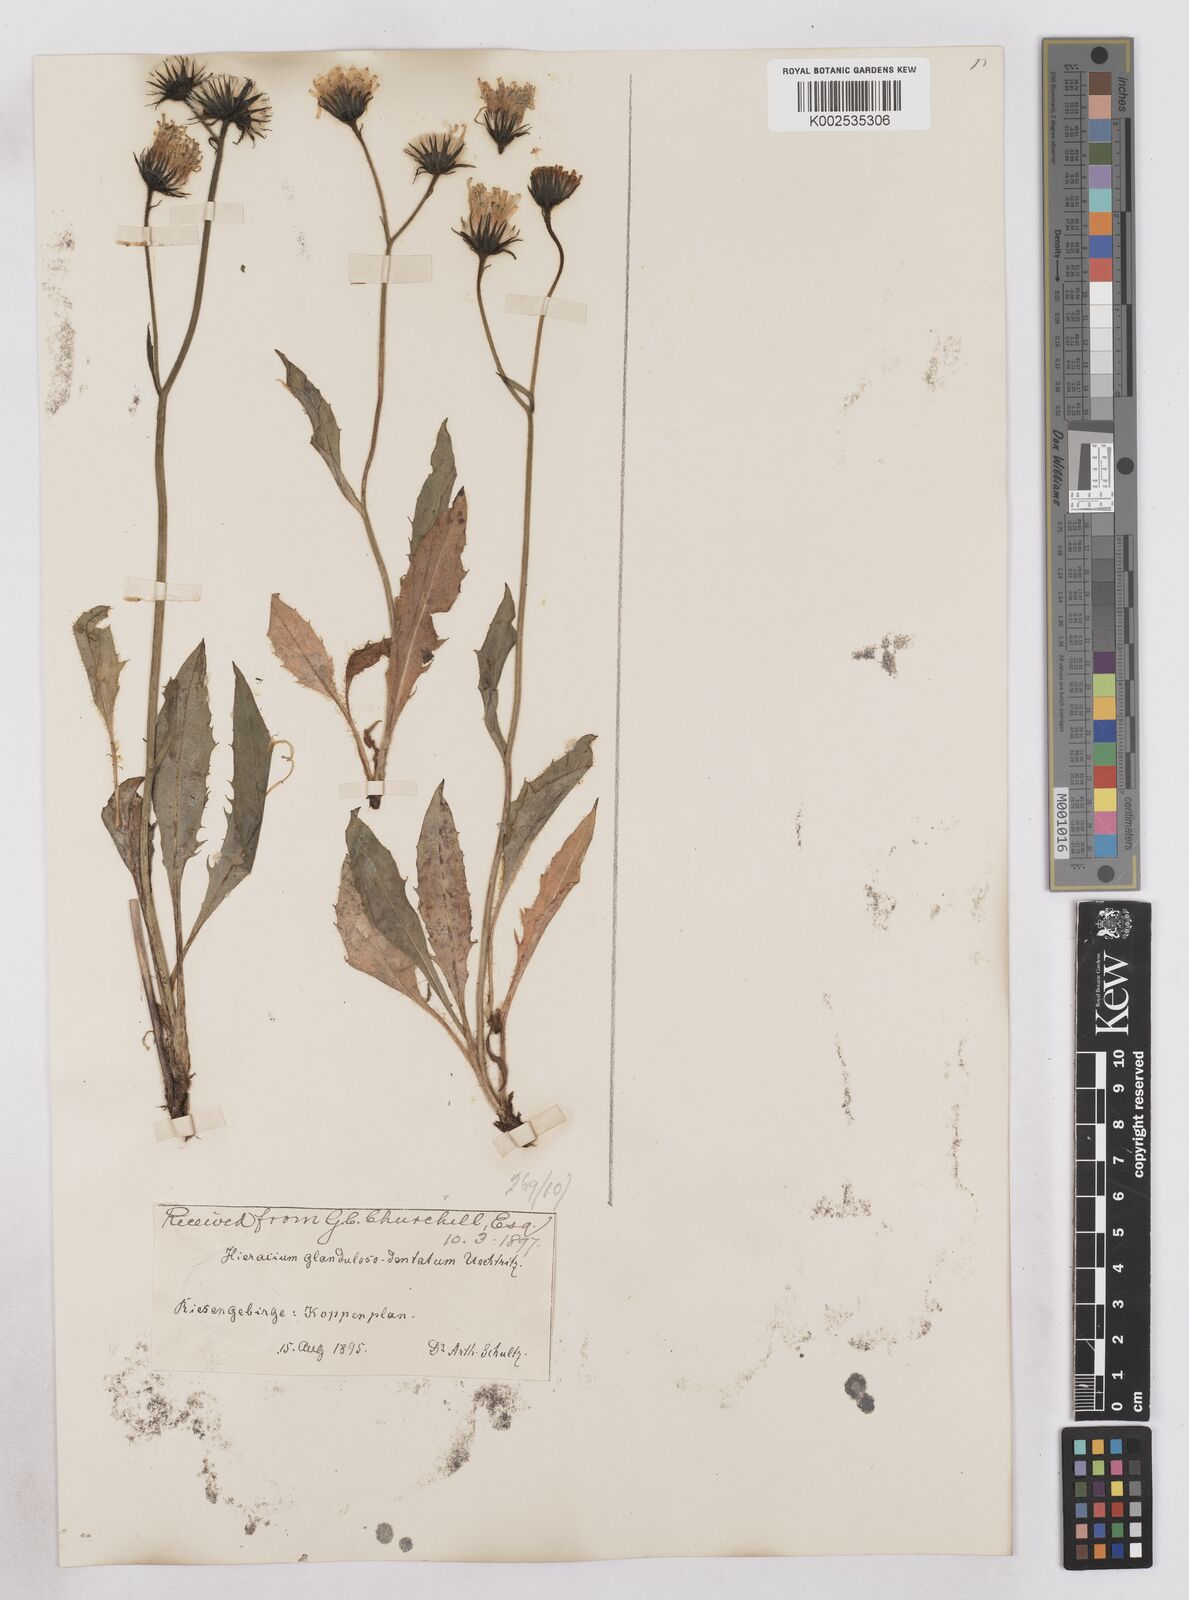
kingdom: Plantae
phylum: Tracheophyta
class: Magnoliopsida
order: Asterales
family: Asteraceae
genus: Hieracium
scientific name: Hieracium bocconei
